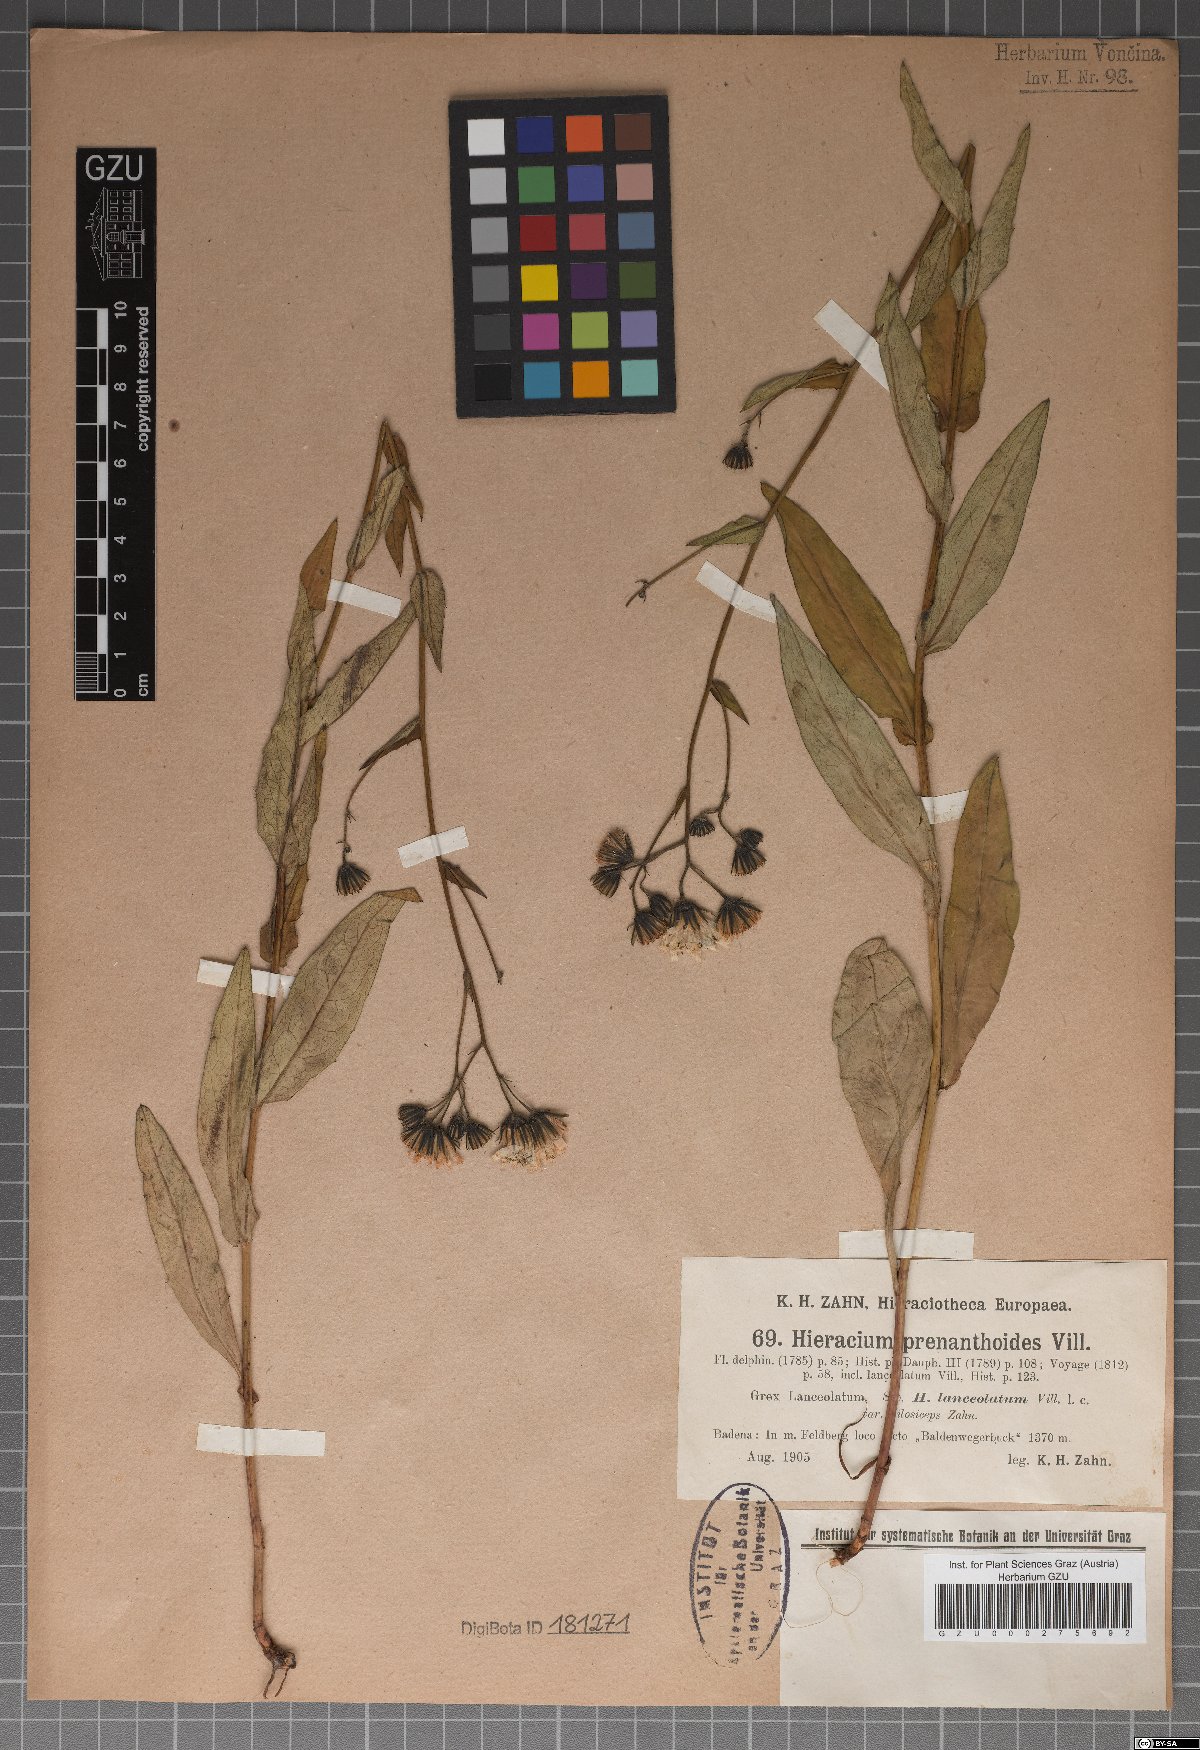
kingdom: Plantae
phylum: Tracheophyta
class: Magnoliopsida
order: Asterales
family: Asteraceae
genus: Hieracium
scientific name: Hieracium prenanthoides
